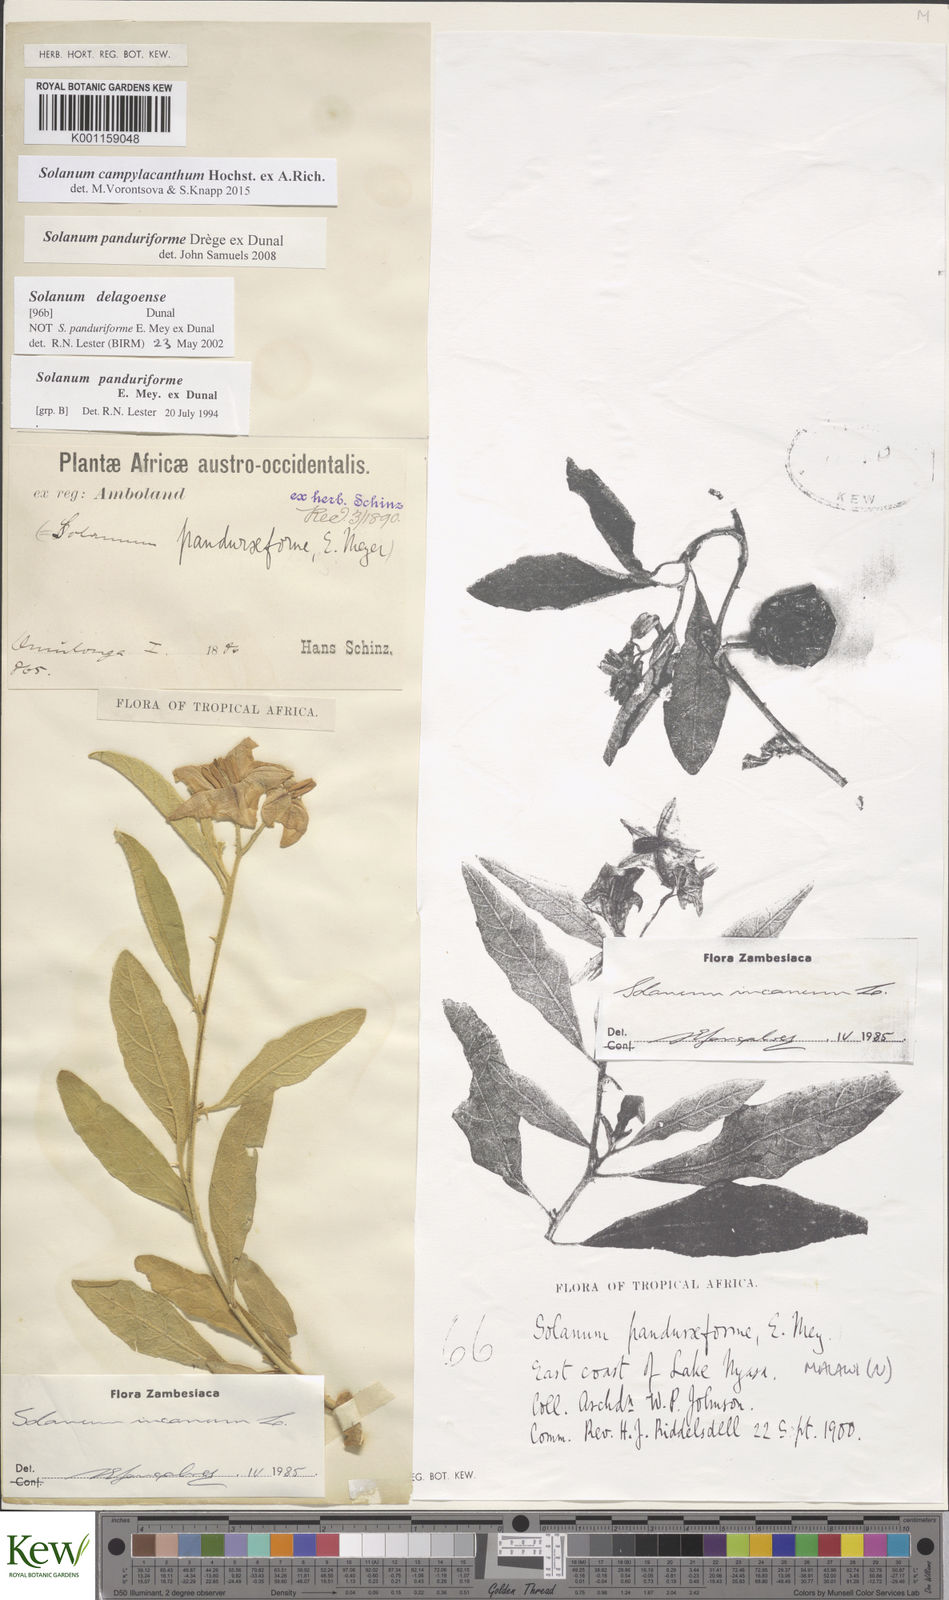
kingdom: Plantae
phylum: Tracheophyta
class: Magnoliopsida
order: Solanales
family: Solanaceae
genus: Solanum
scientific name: Solanum campylacanthum
